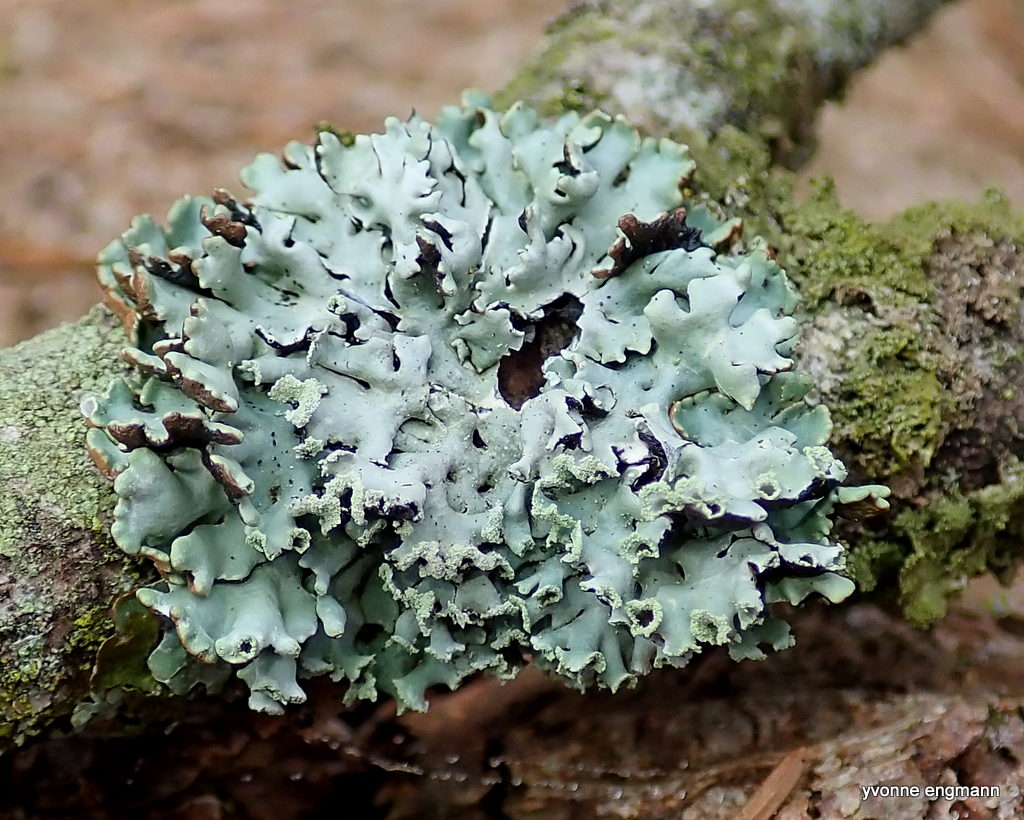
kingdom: Fungi
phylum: Ascomycota
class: Lecanoromycetes
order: Lecanorales
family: Parmeliaceae
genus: Hypogymnia
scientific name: Hypogymnia physodes
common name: almindelig kvistlav
